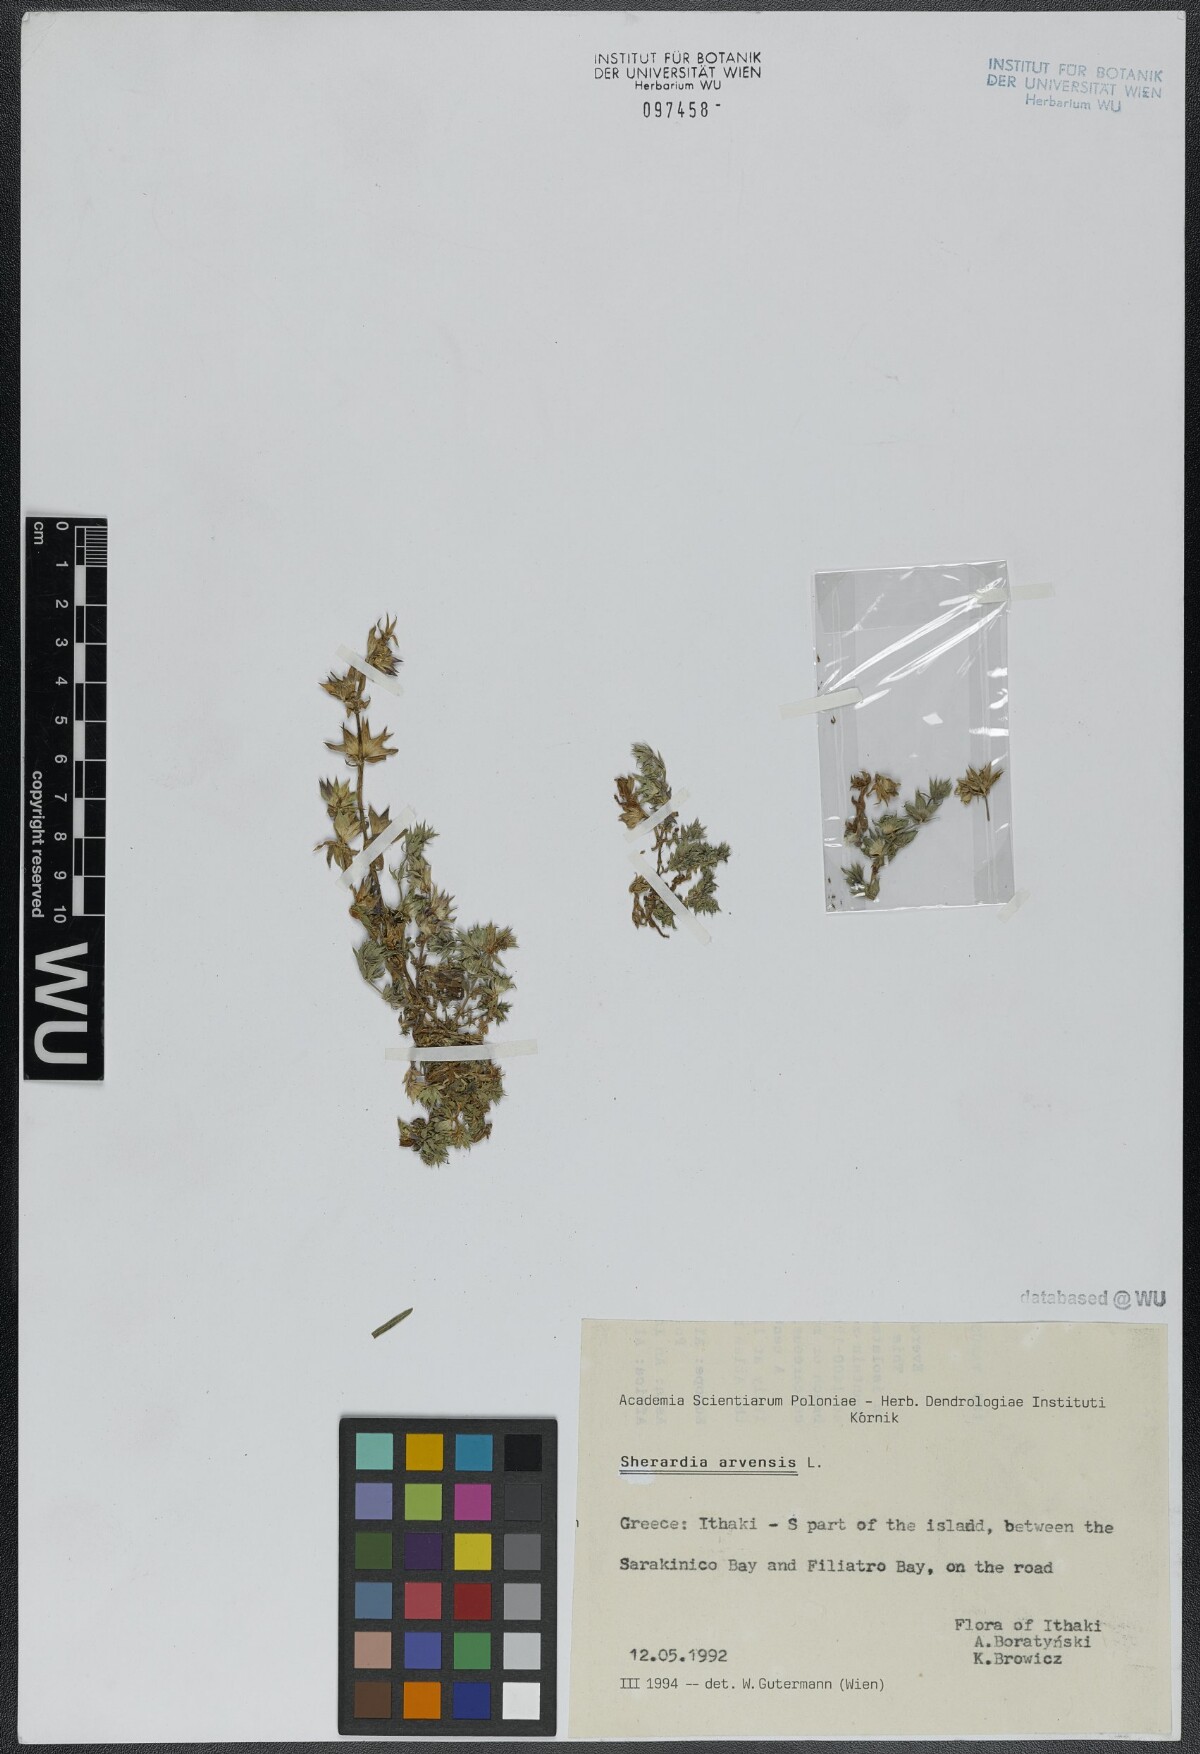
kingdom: Plantae
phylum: Tracheophyta
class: Magnoliopsida
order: Gentianales
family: Rubiaceae
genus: Sherardia
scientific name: Sherardia arvensis
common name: Field madder
